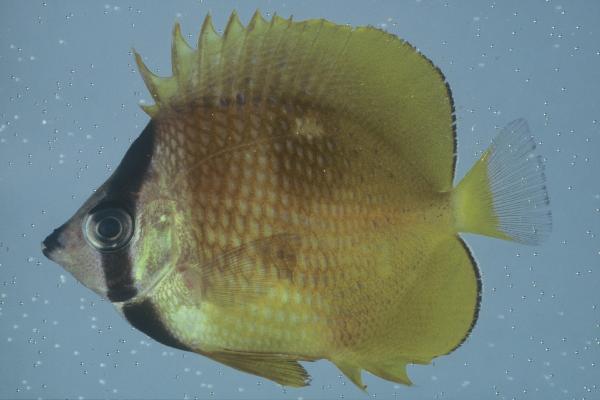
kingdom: Animalia
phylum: Chordata
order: Perciformes
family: Chaetodontidae
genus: Chaetodon
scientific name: Chaetodon kleinii
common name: Klein's butterflyfish
